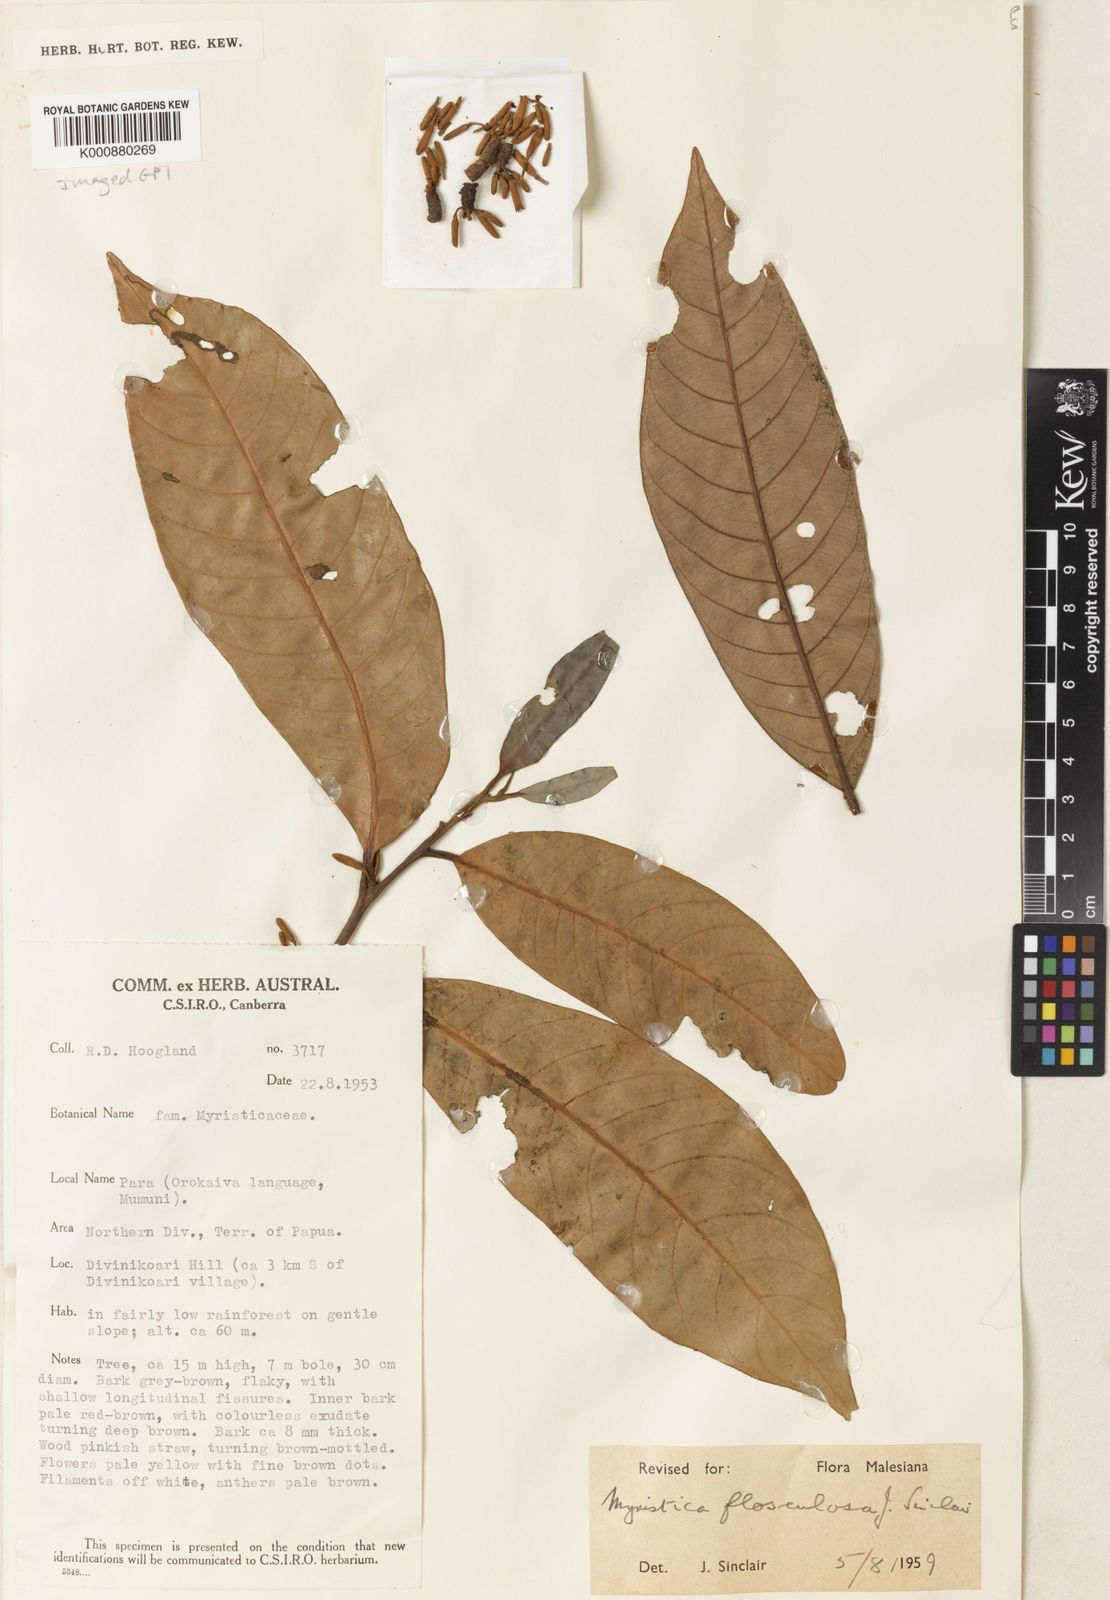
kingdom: Plantae
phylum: Tracheophyta
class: Magnoliopsida
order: Magnoliales
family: Myristicaceae
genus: Myristica
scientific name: Myristica flosculosa
